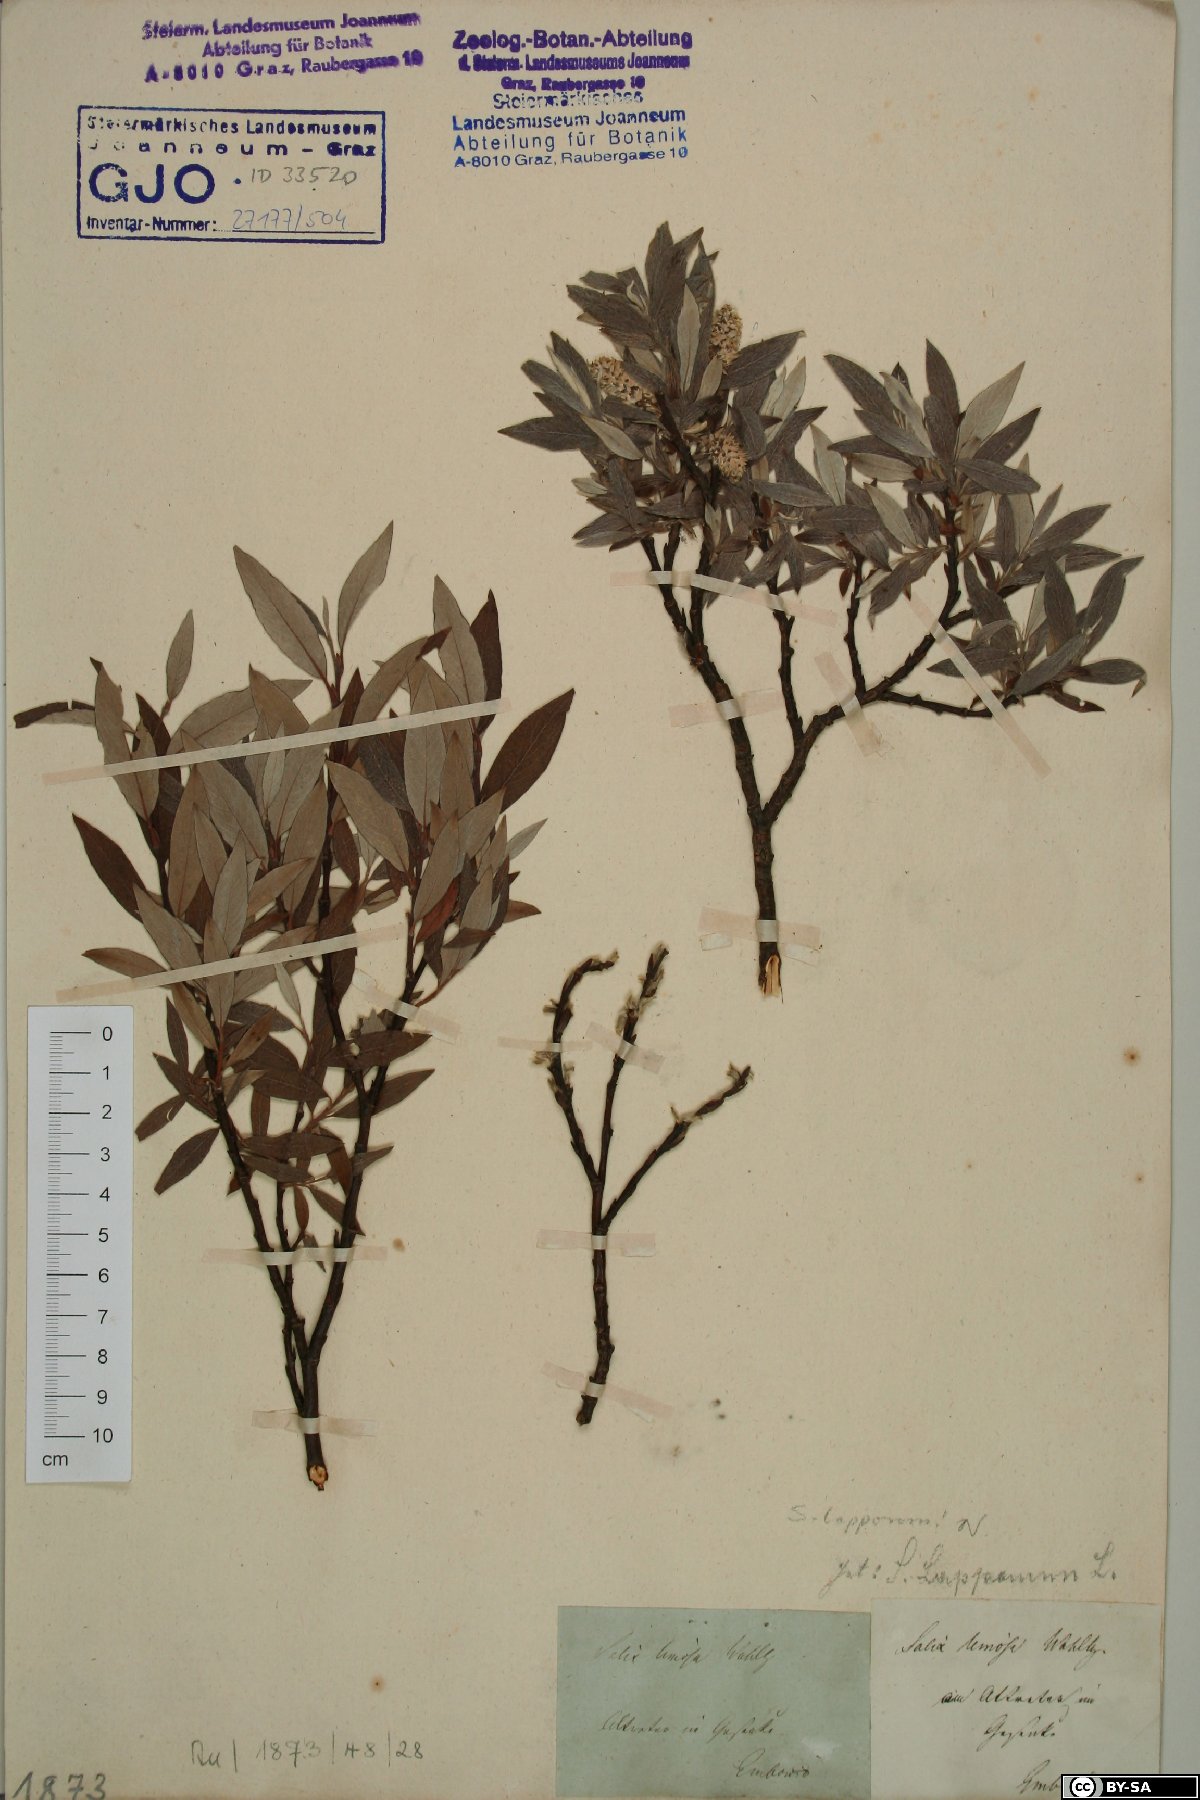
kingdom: Plantae
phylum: Tracheophyta
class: Magnoliopsida
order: Malpighiales
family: Salicaceae
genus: Salix
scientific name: Salix lapponum
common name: Downy willow
